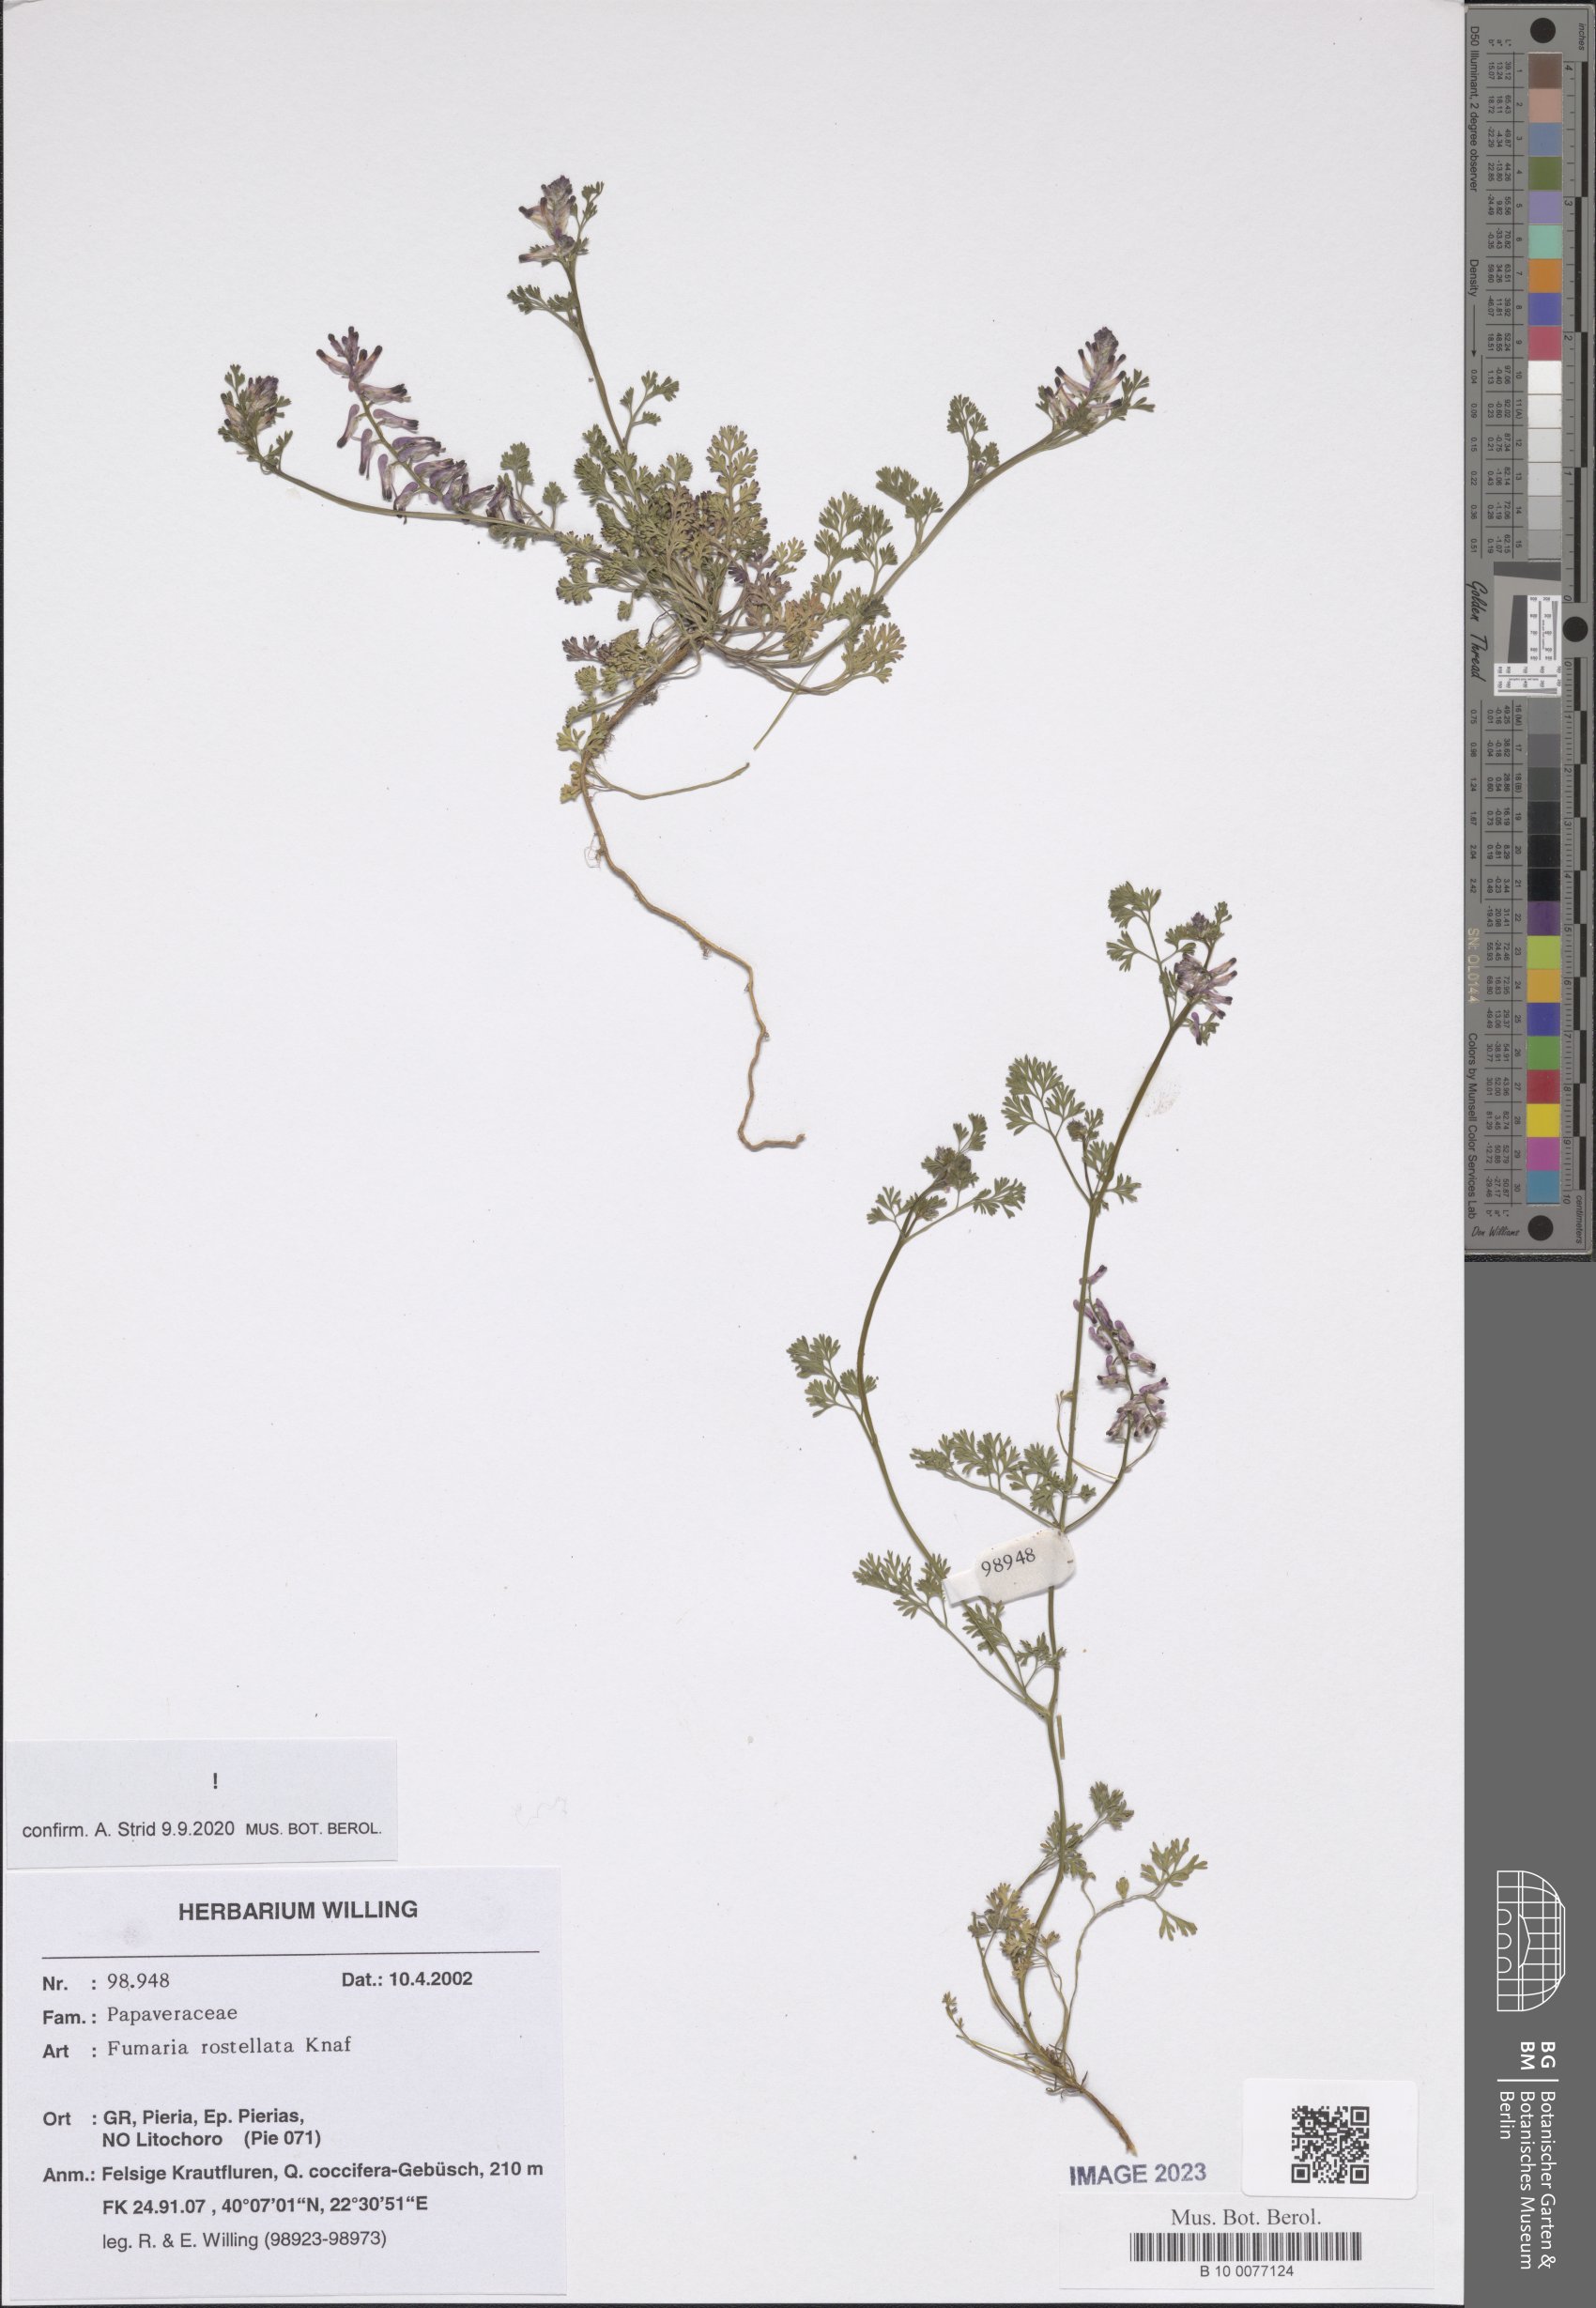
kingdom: Plantae
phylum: Tracheophyta
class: Magnoliopsida
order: Ranunculales
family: Papaveraceae
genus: Fumaria
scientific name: Fumaria rostellata
